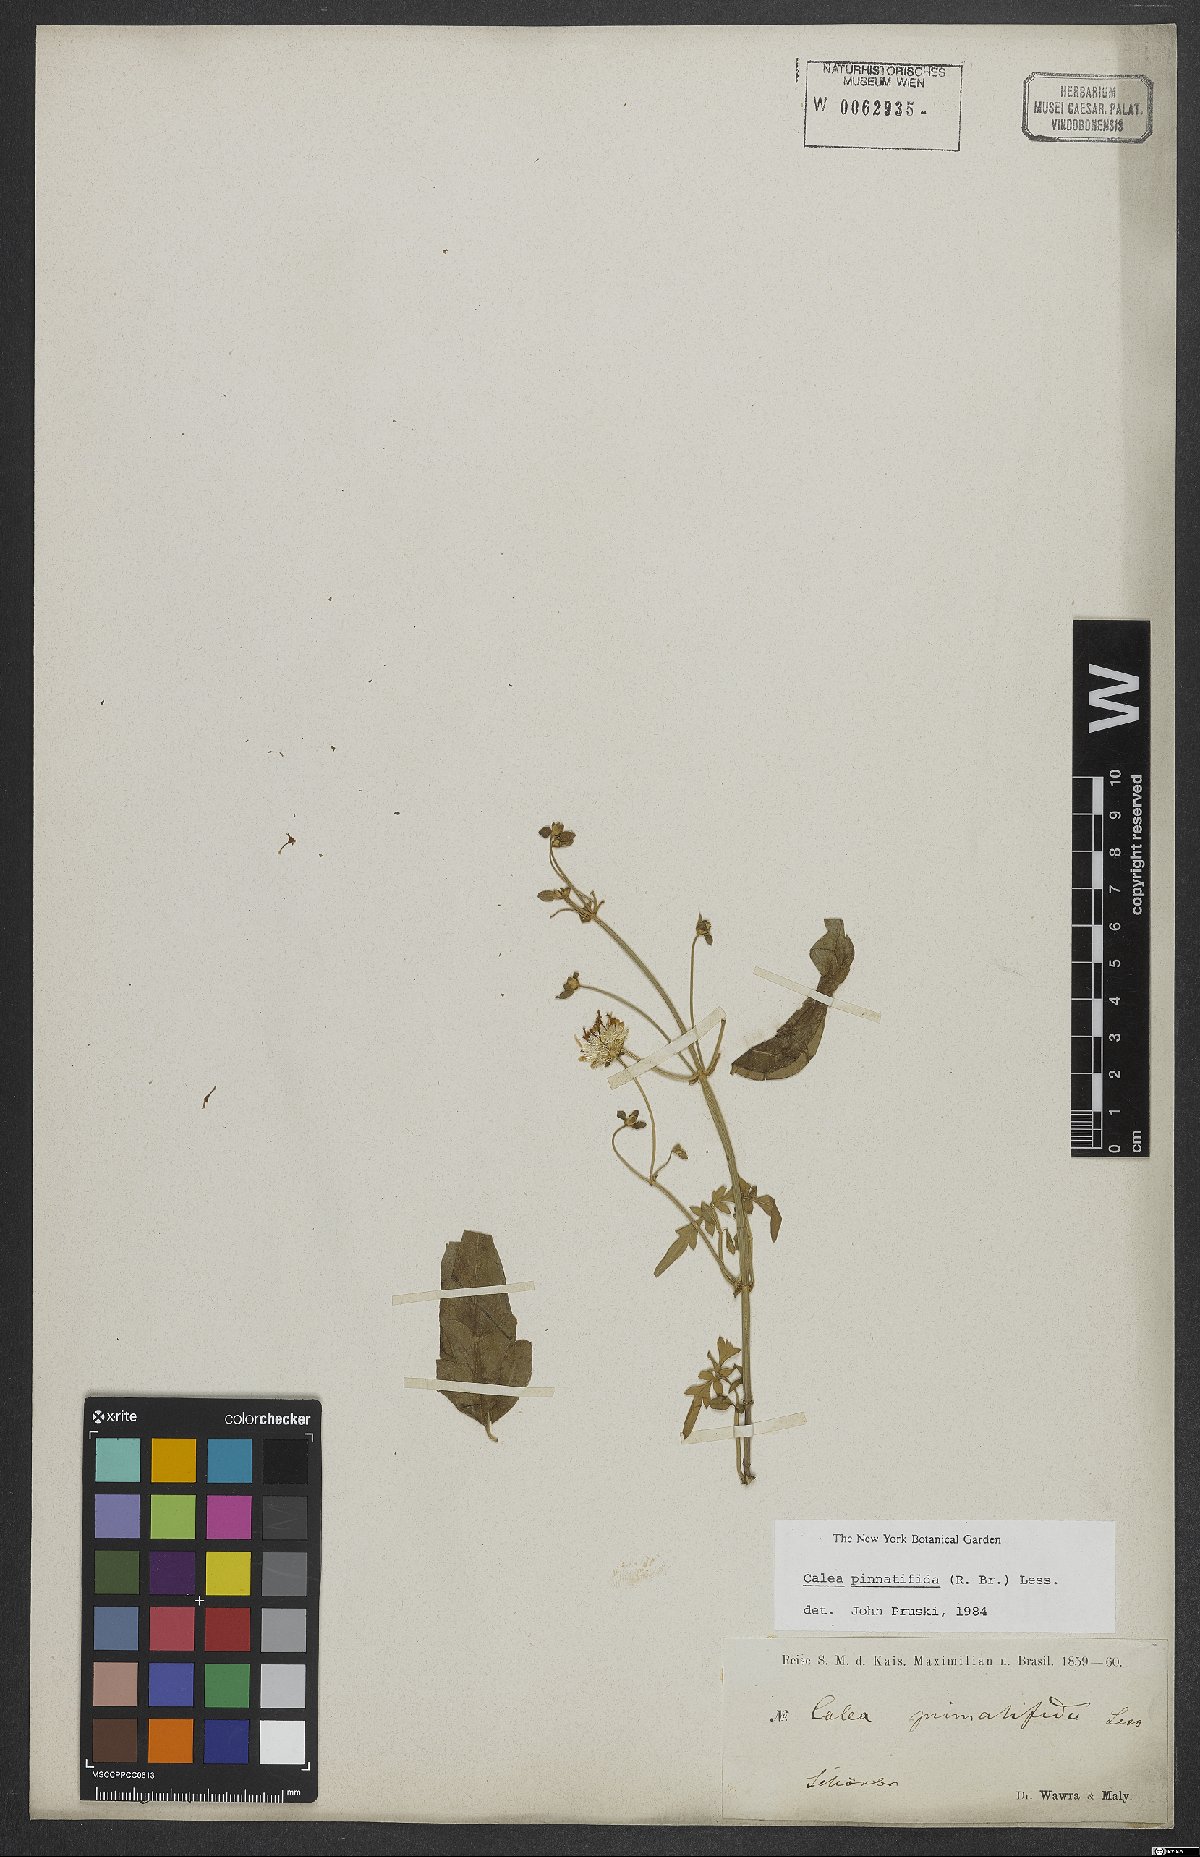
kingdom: Plantae
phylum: Tracheophyta
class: Magnoliopsida
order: Asterales
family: Asteraceae
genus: Calea
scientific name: Calea pinnatifida
